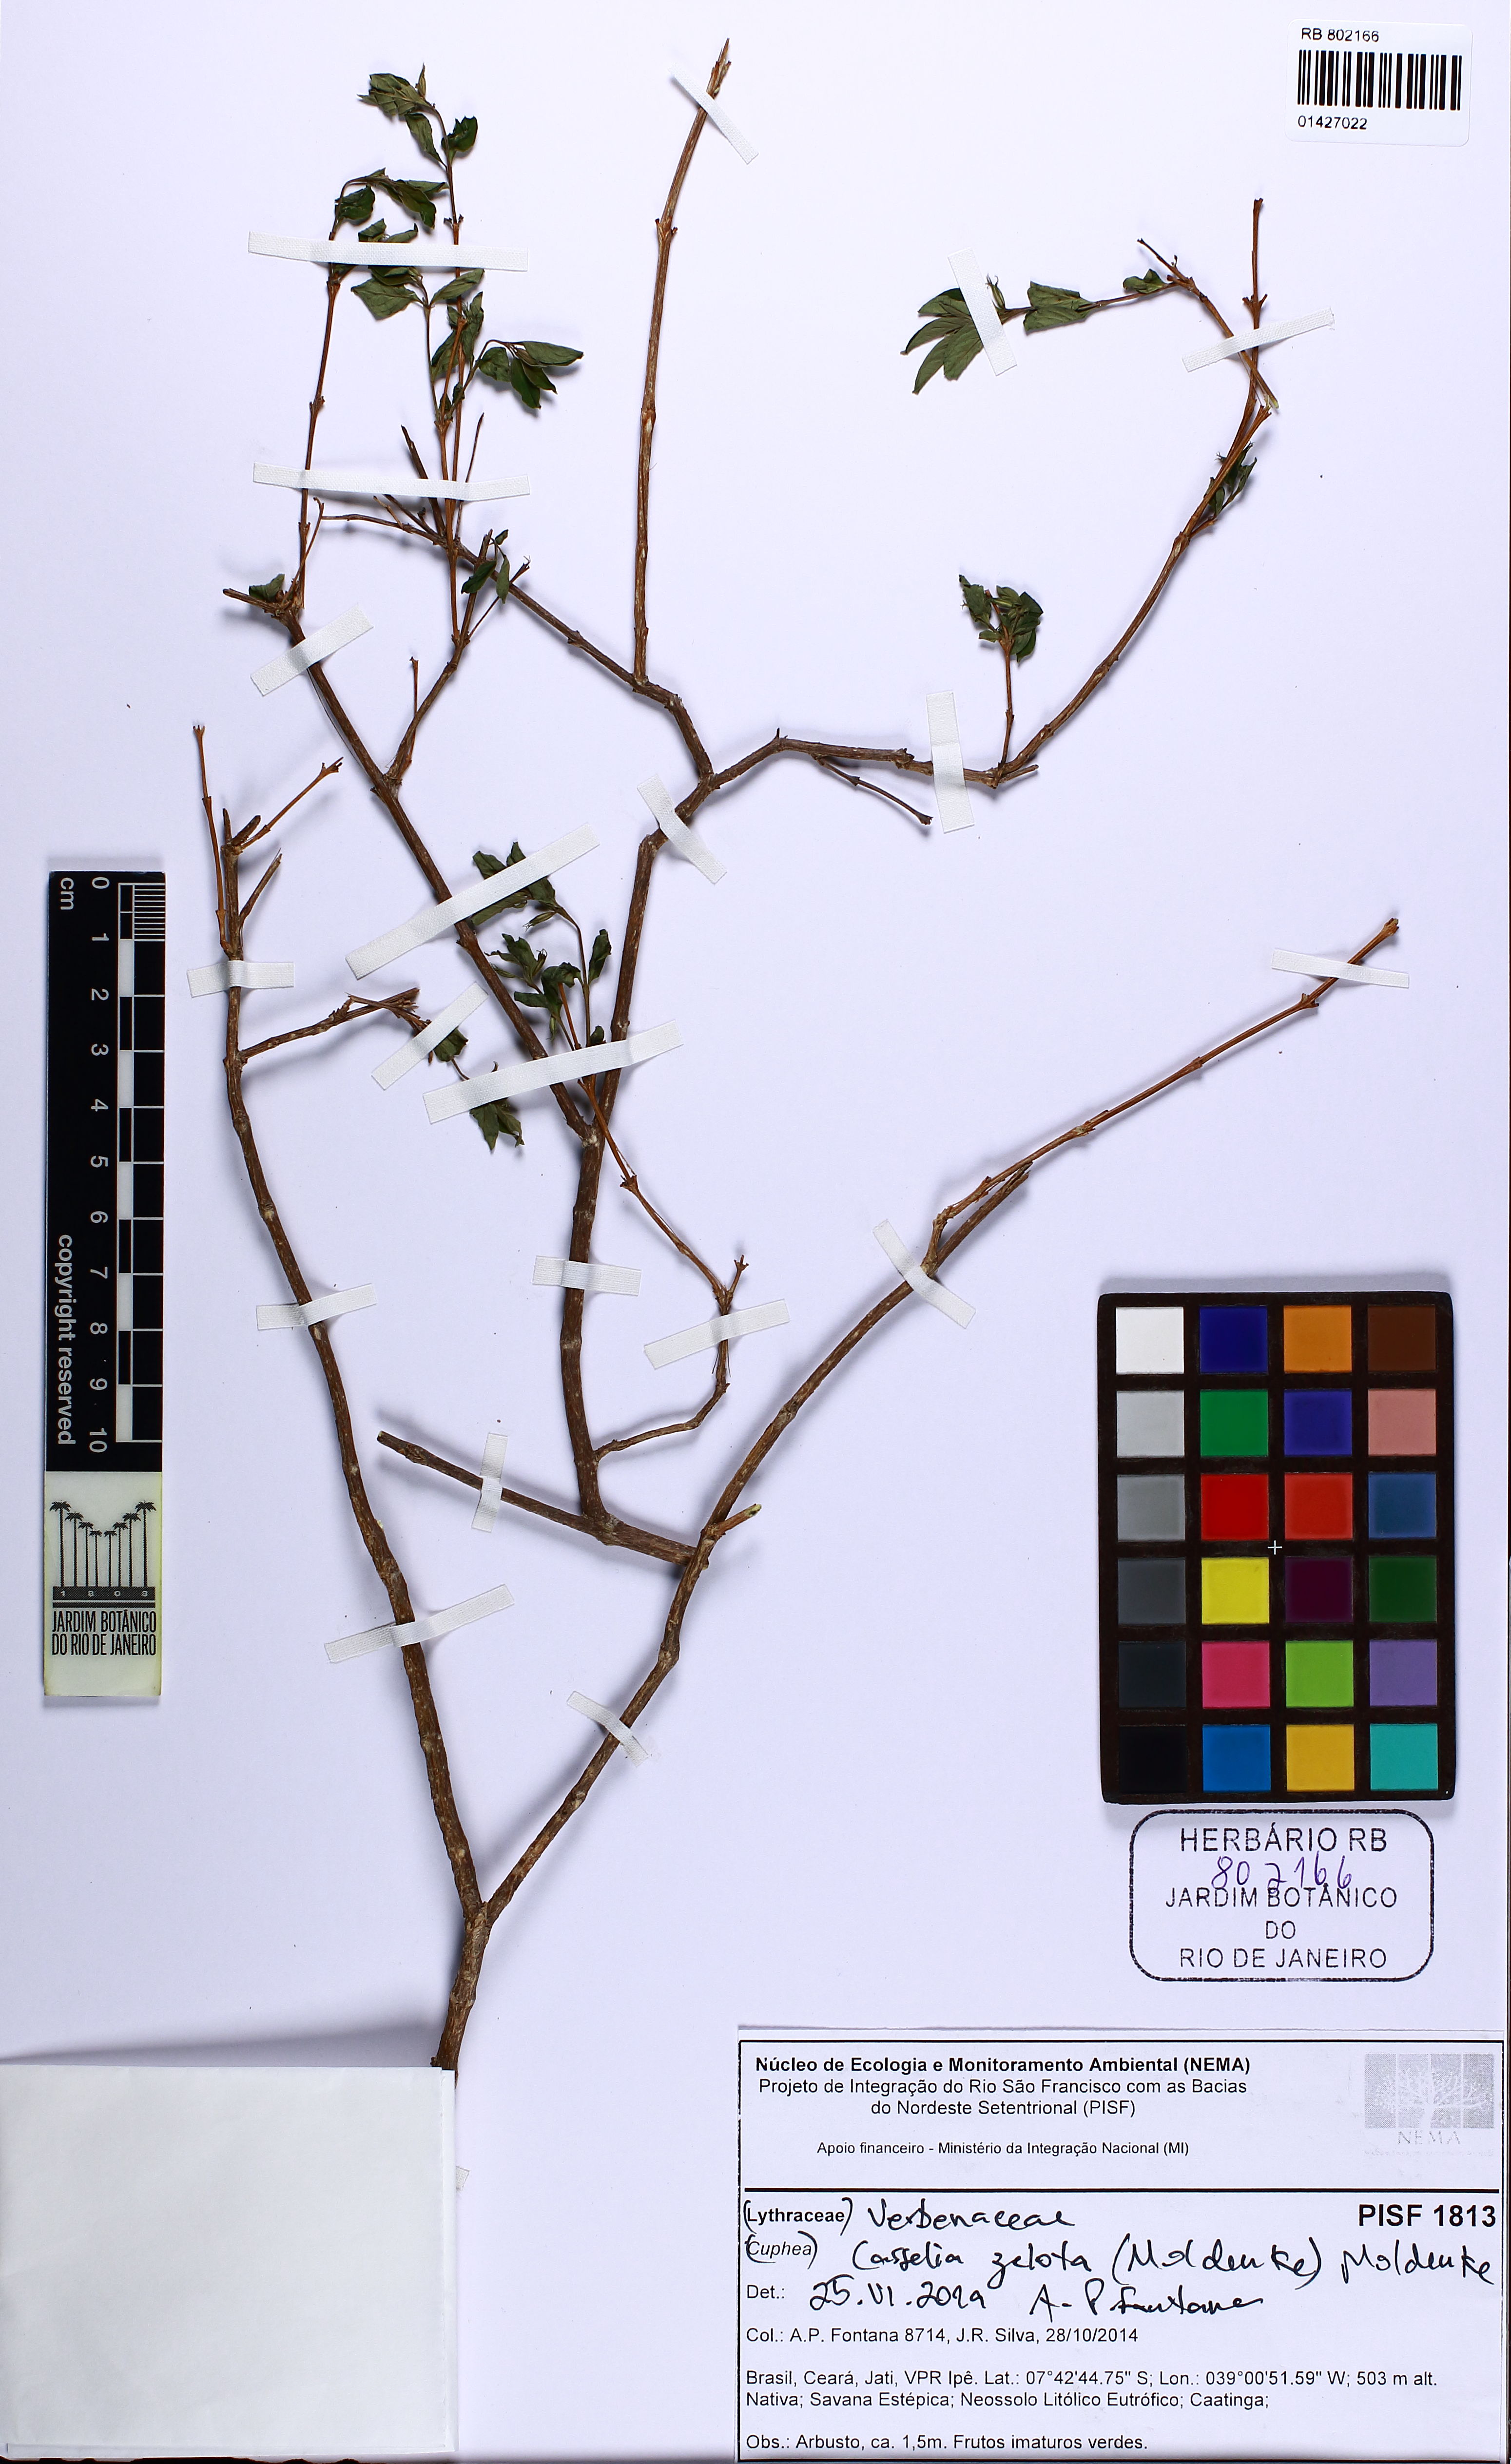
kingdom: Plantae
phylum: Tracheophyta
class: Magnoliopsida
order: Lamiales
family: Verbenaceae
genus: Casselia
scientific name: Casselia zelota
